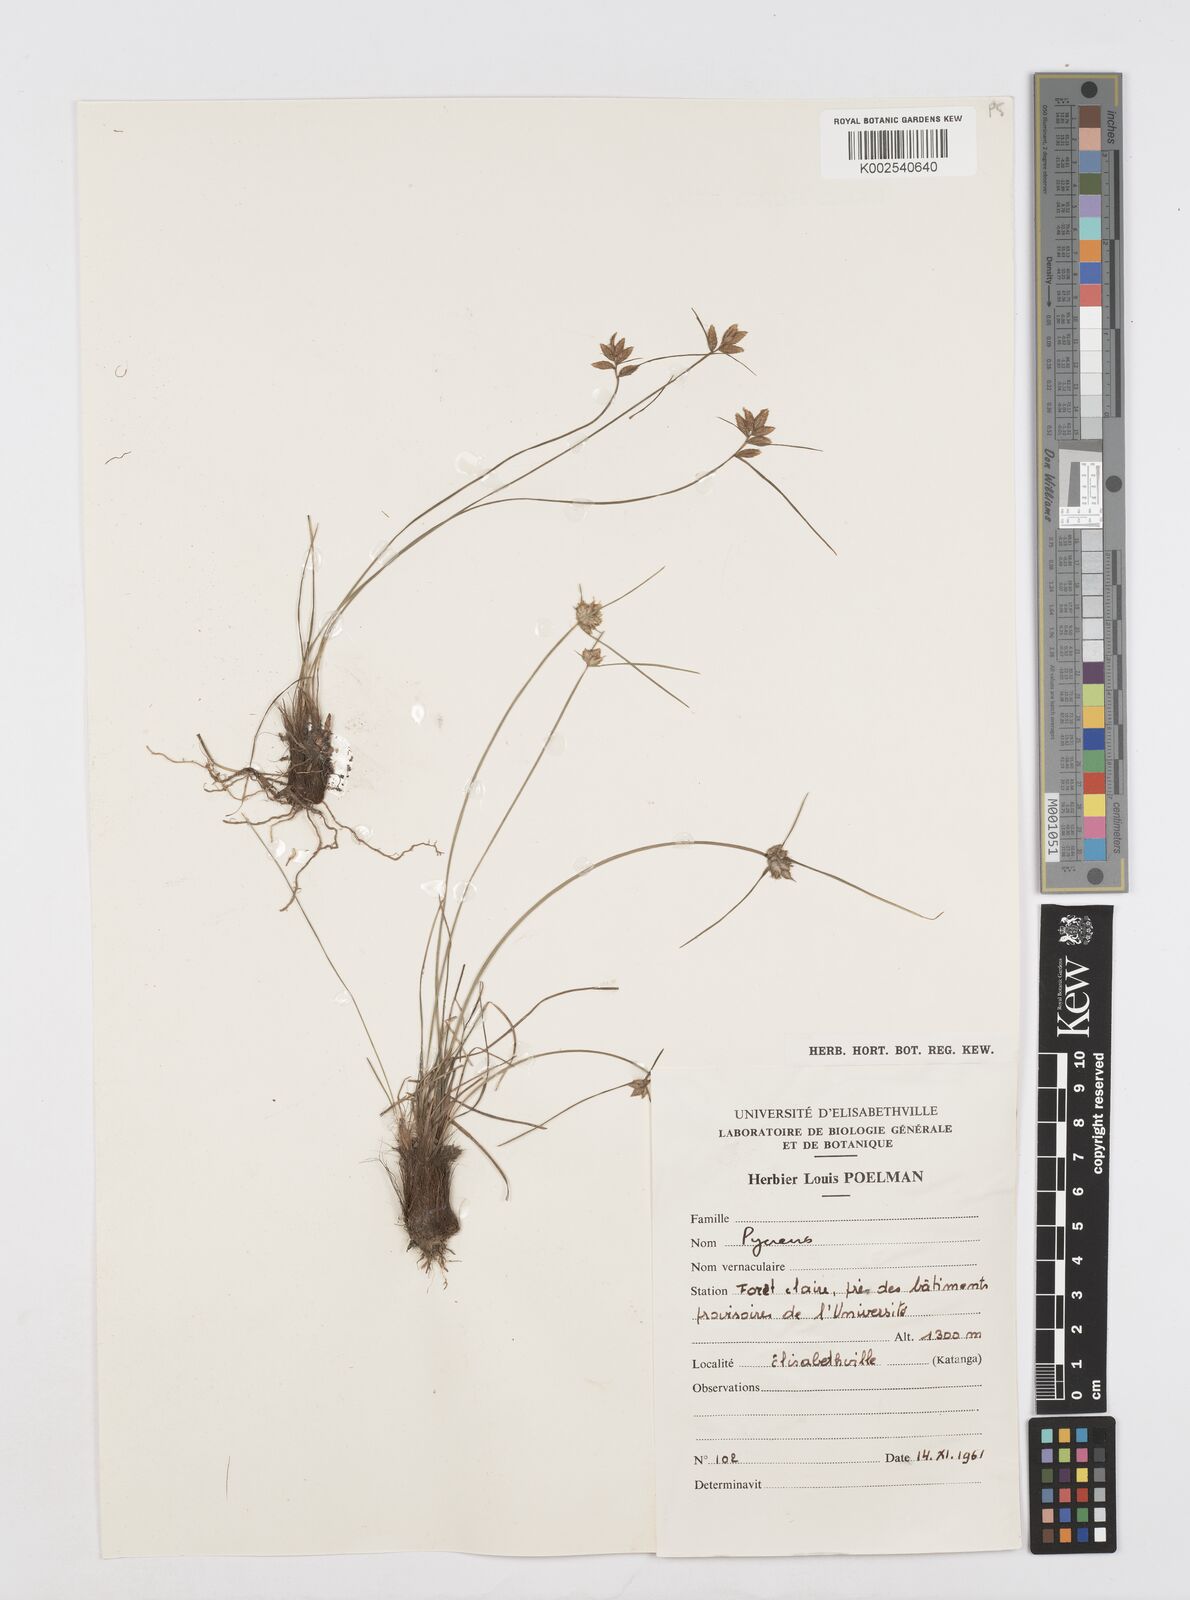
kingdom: Plantae
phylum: Tracheophyta
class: Liliopsida
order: Poales
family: Cyperaceae
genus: Cyperus
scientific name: Cyperus scaettae
